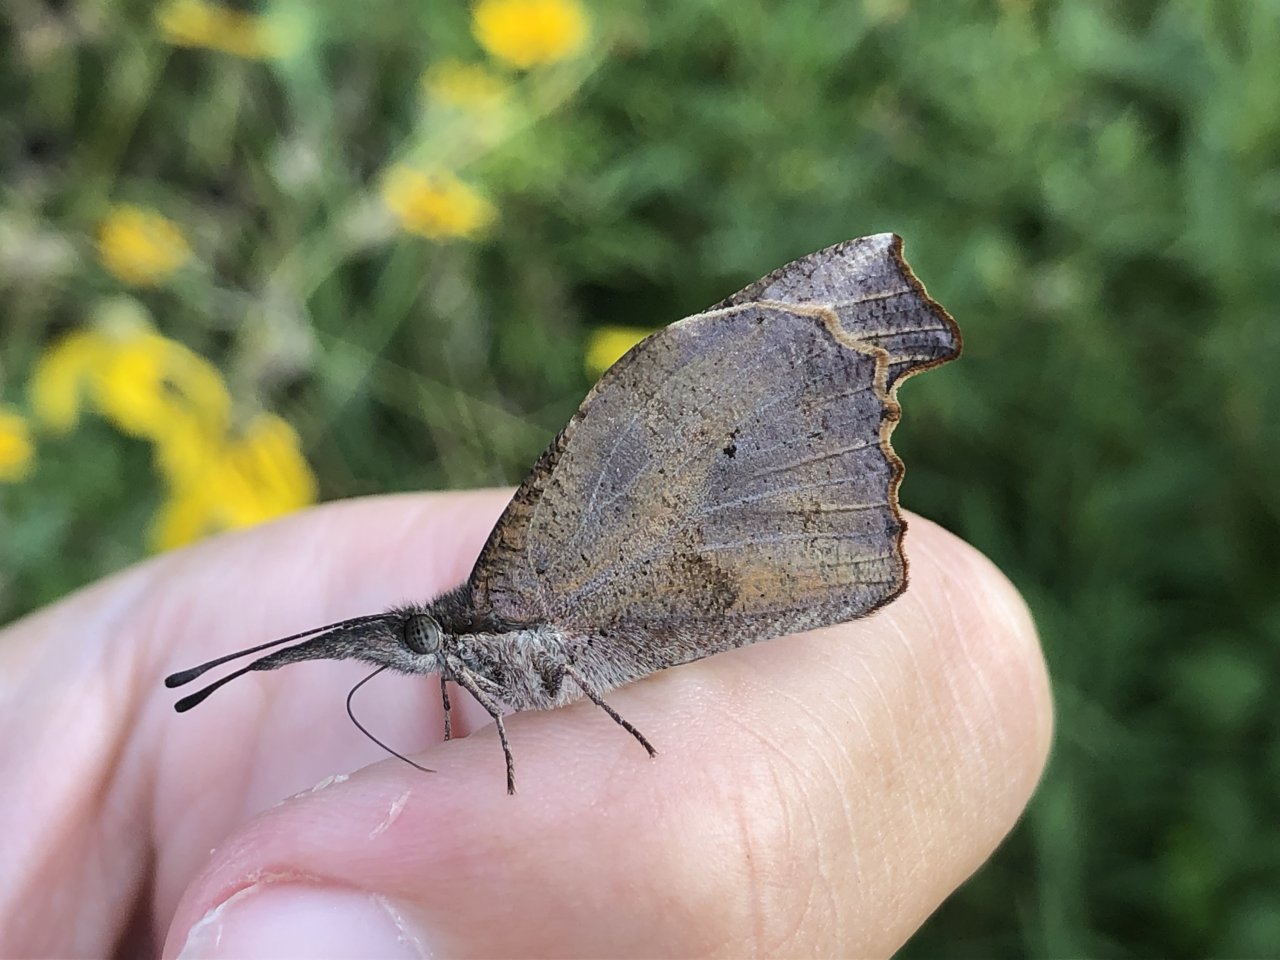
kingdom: Animalia
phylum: Arthropoda
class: Insecta
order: Lepidoptera
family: Nymphalidae
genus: Libytheana
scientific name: Libytheana carinenta
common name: American Snout
